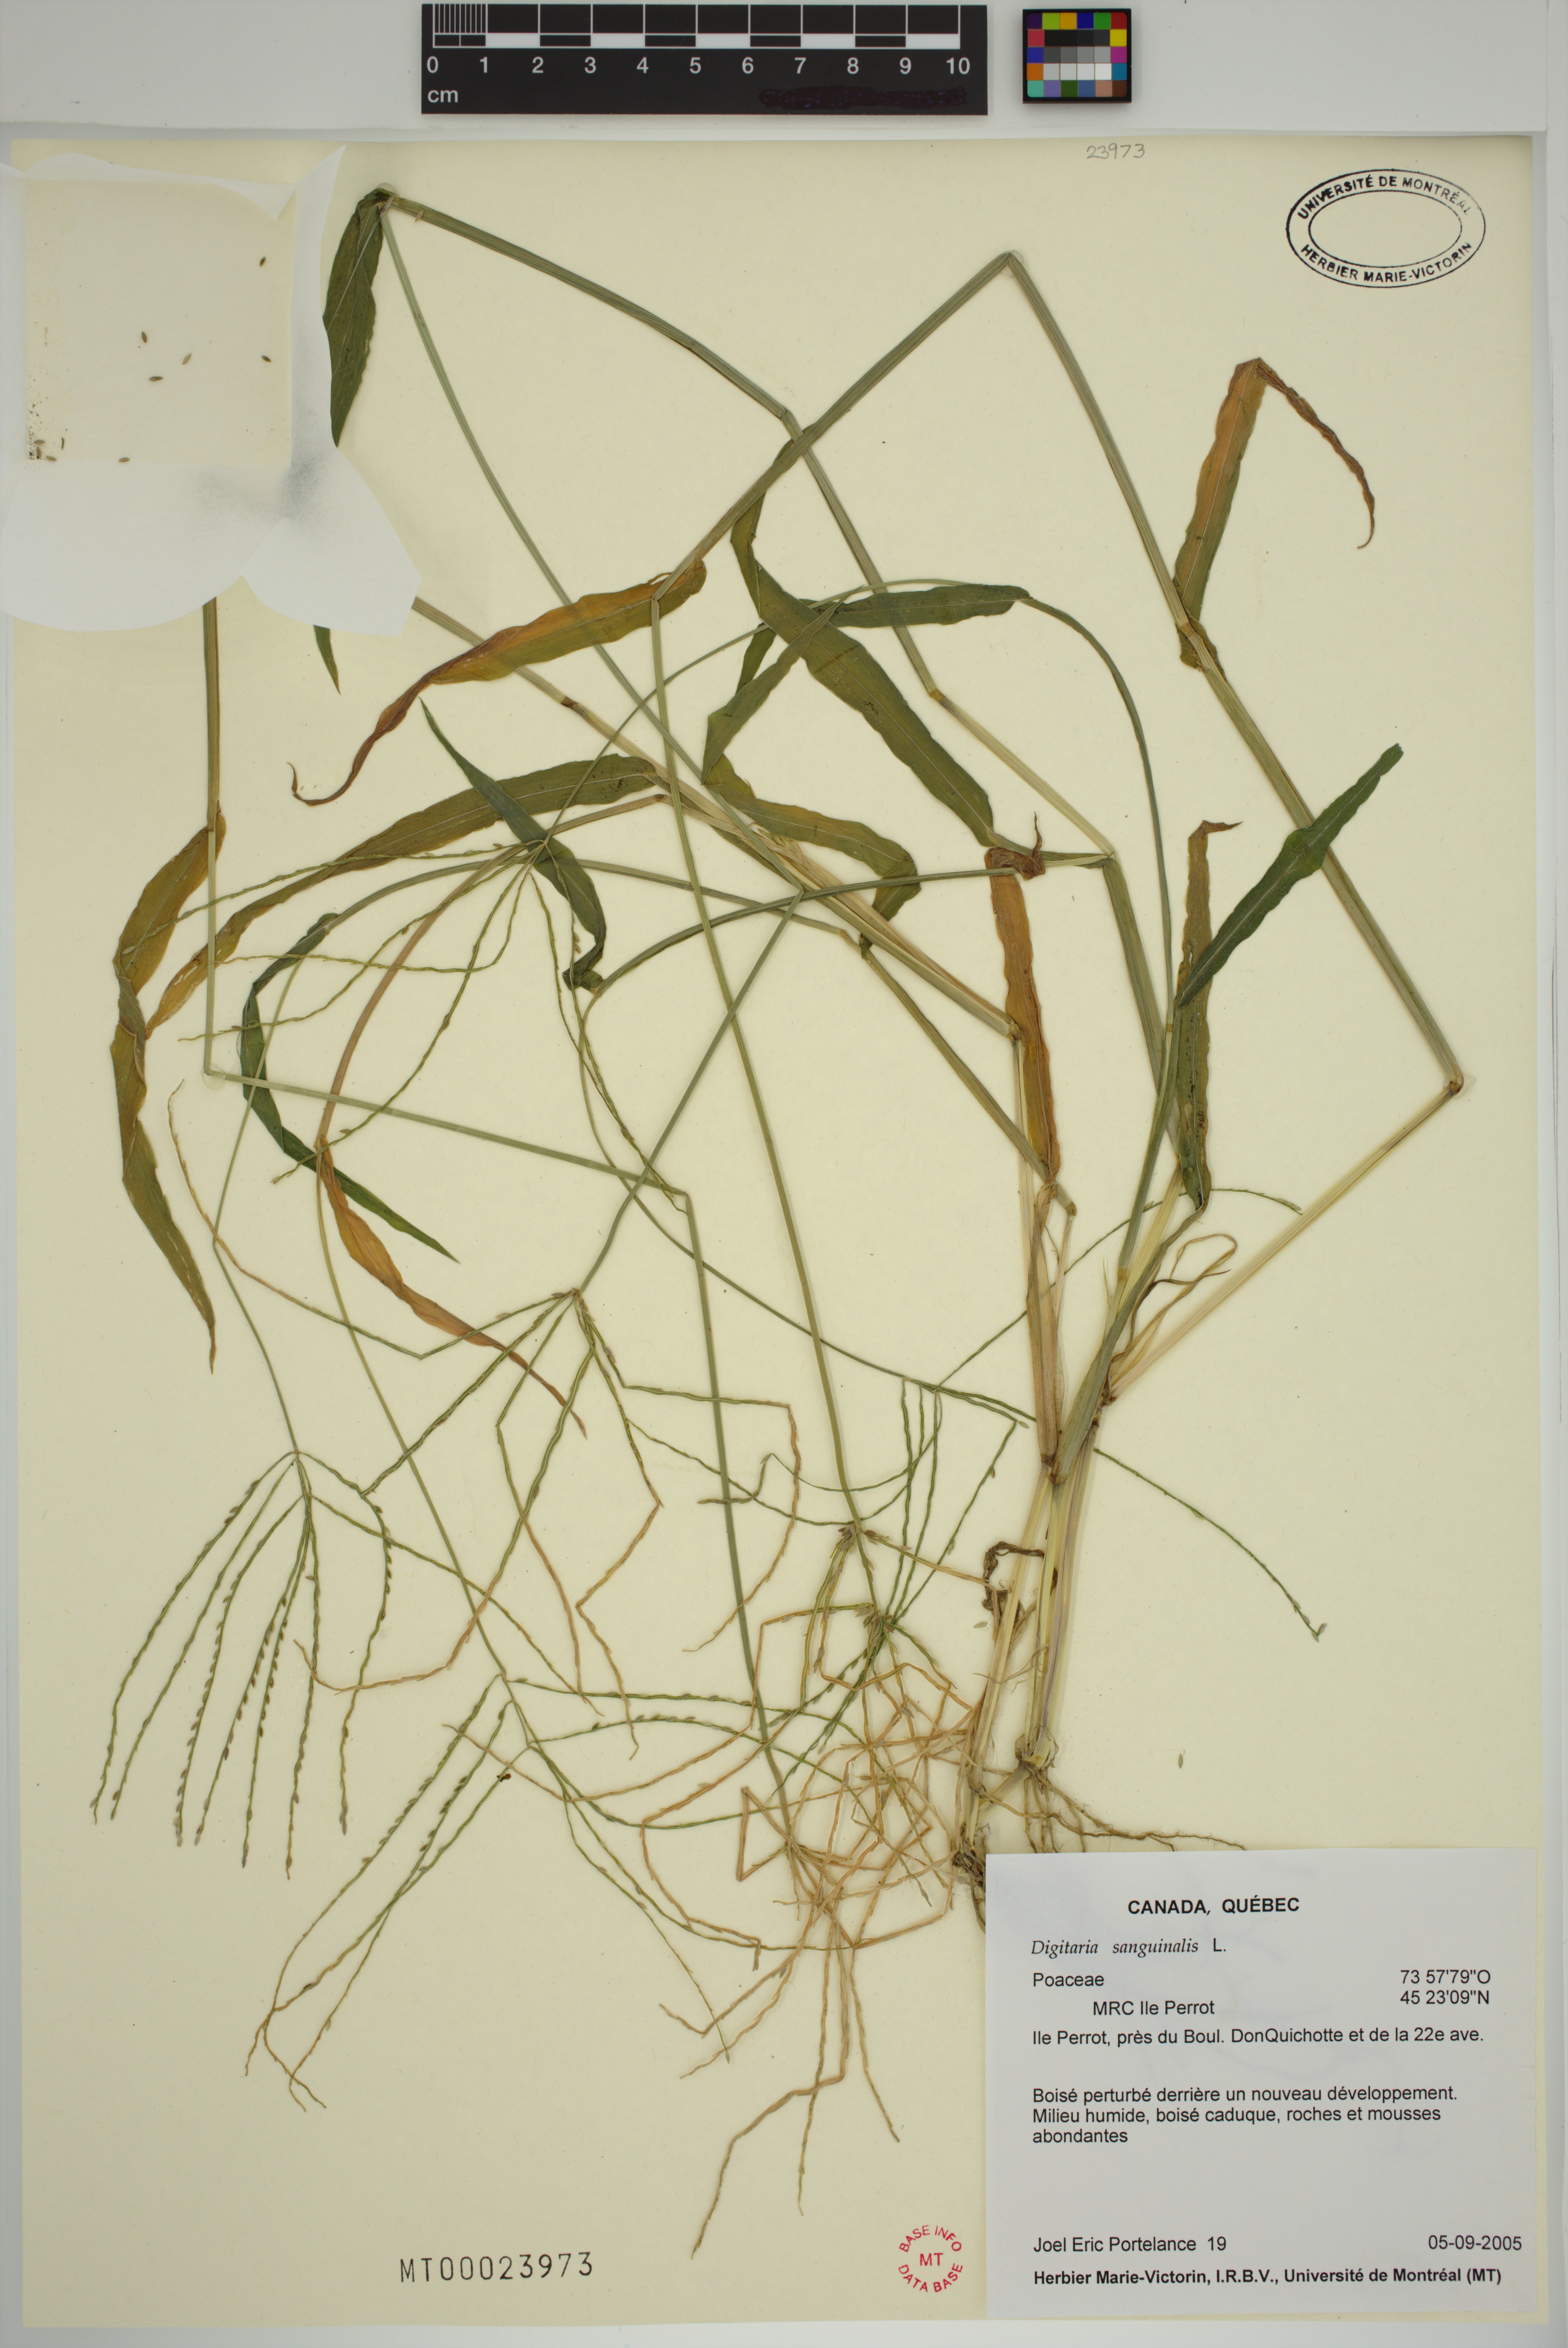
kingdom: Plantae
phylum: Tracheophyta
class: Liliopsida
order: Poales
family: Poaceae
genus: Digitaria
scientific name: Digitaria sanguinalis
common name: Hairy crabgrass
